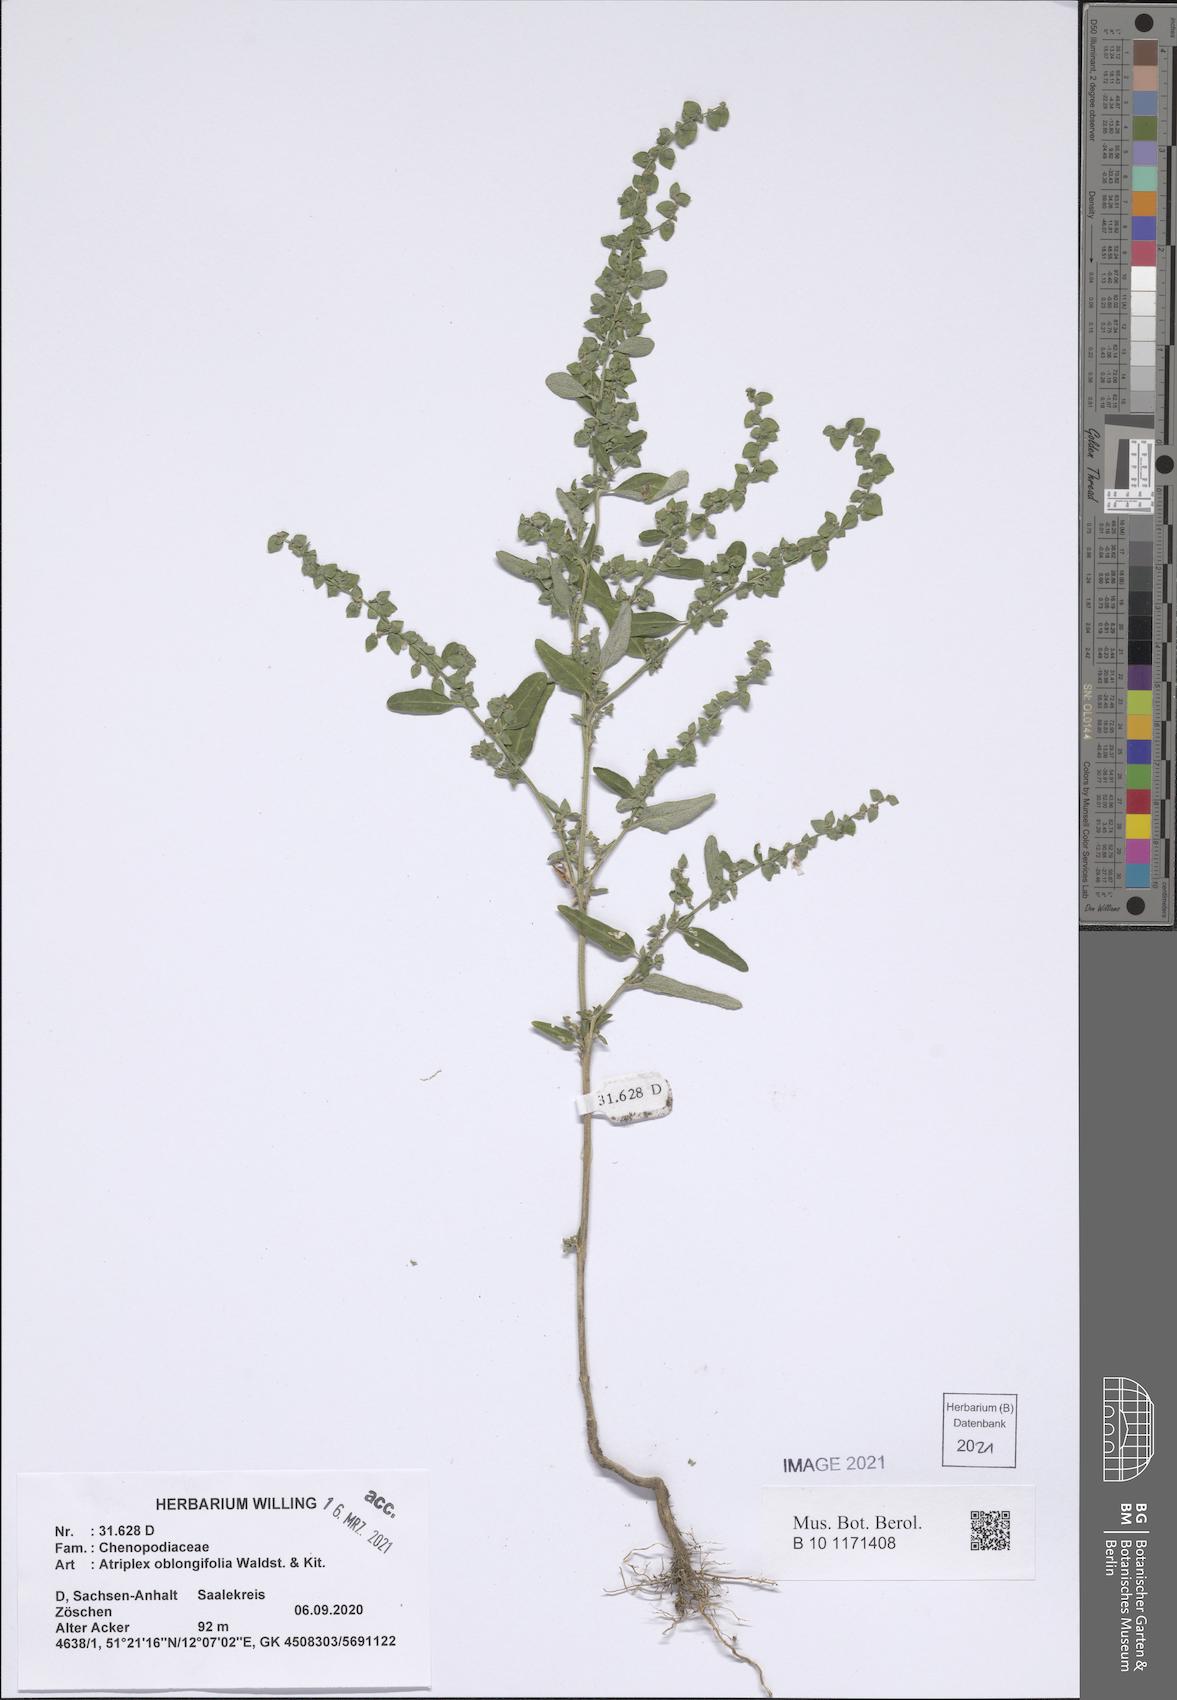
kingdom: Plantae
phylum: Tracheophyta
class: Magnoliopsida
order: Caryophyllales
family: Amaranthaceae
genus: Atriplex
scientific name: Atriplex oblongifolia
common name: Oblongleaf orache
